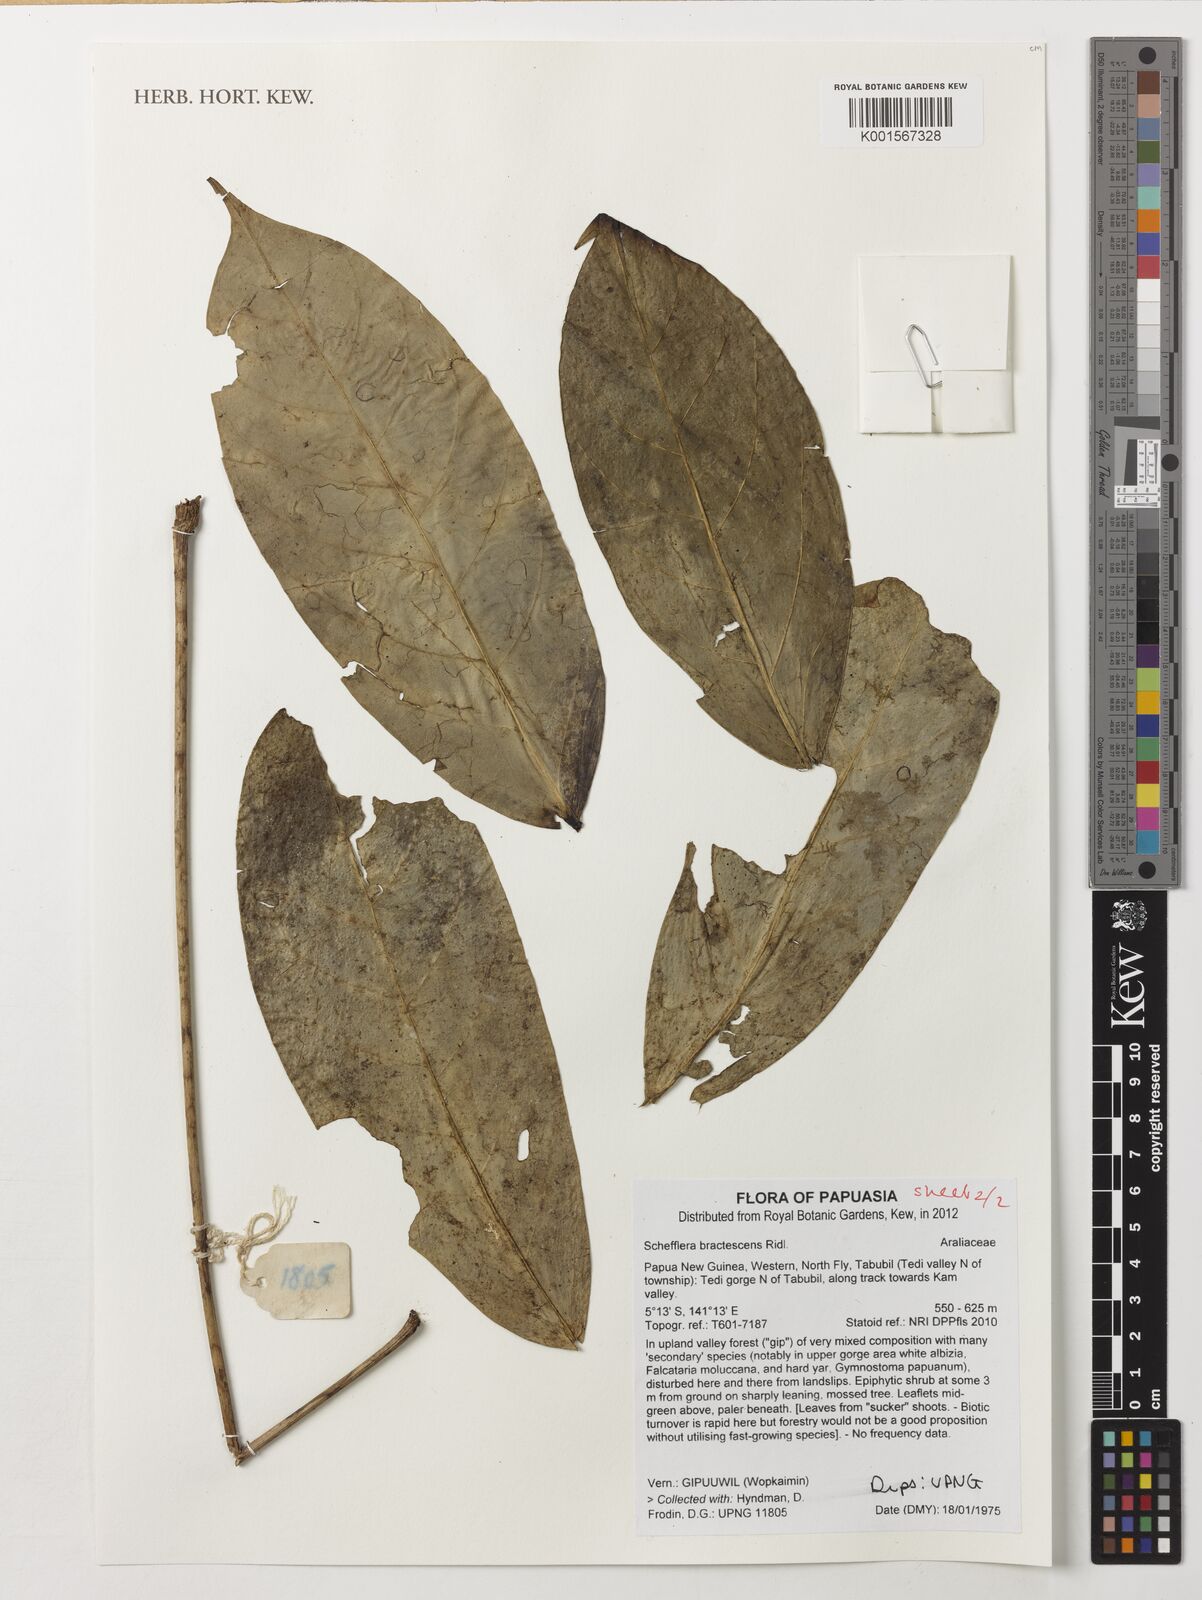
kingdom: Plantae
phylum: Tracheophyta
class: Magnoliopsida
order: Apiales
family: Araliaceae
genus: Heptapleurum
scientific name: Heptapleurum bractescens
